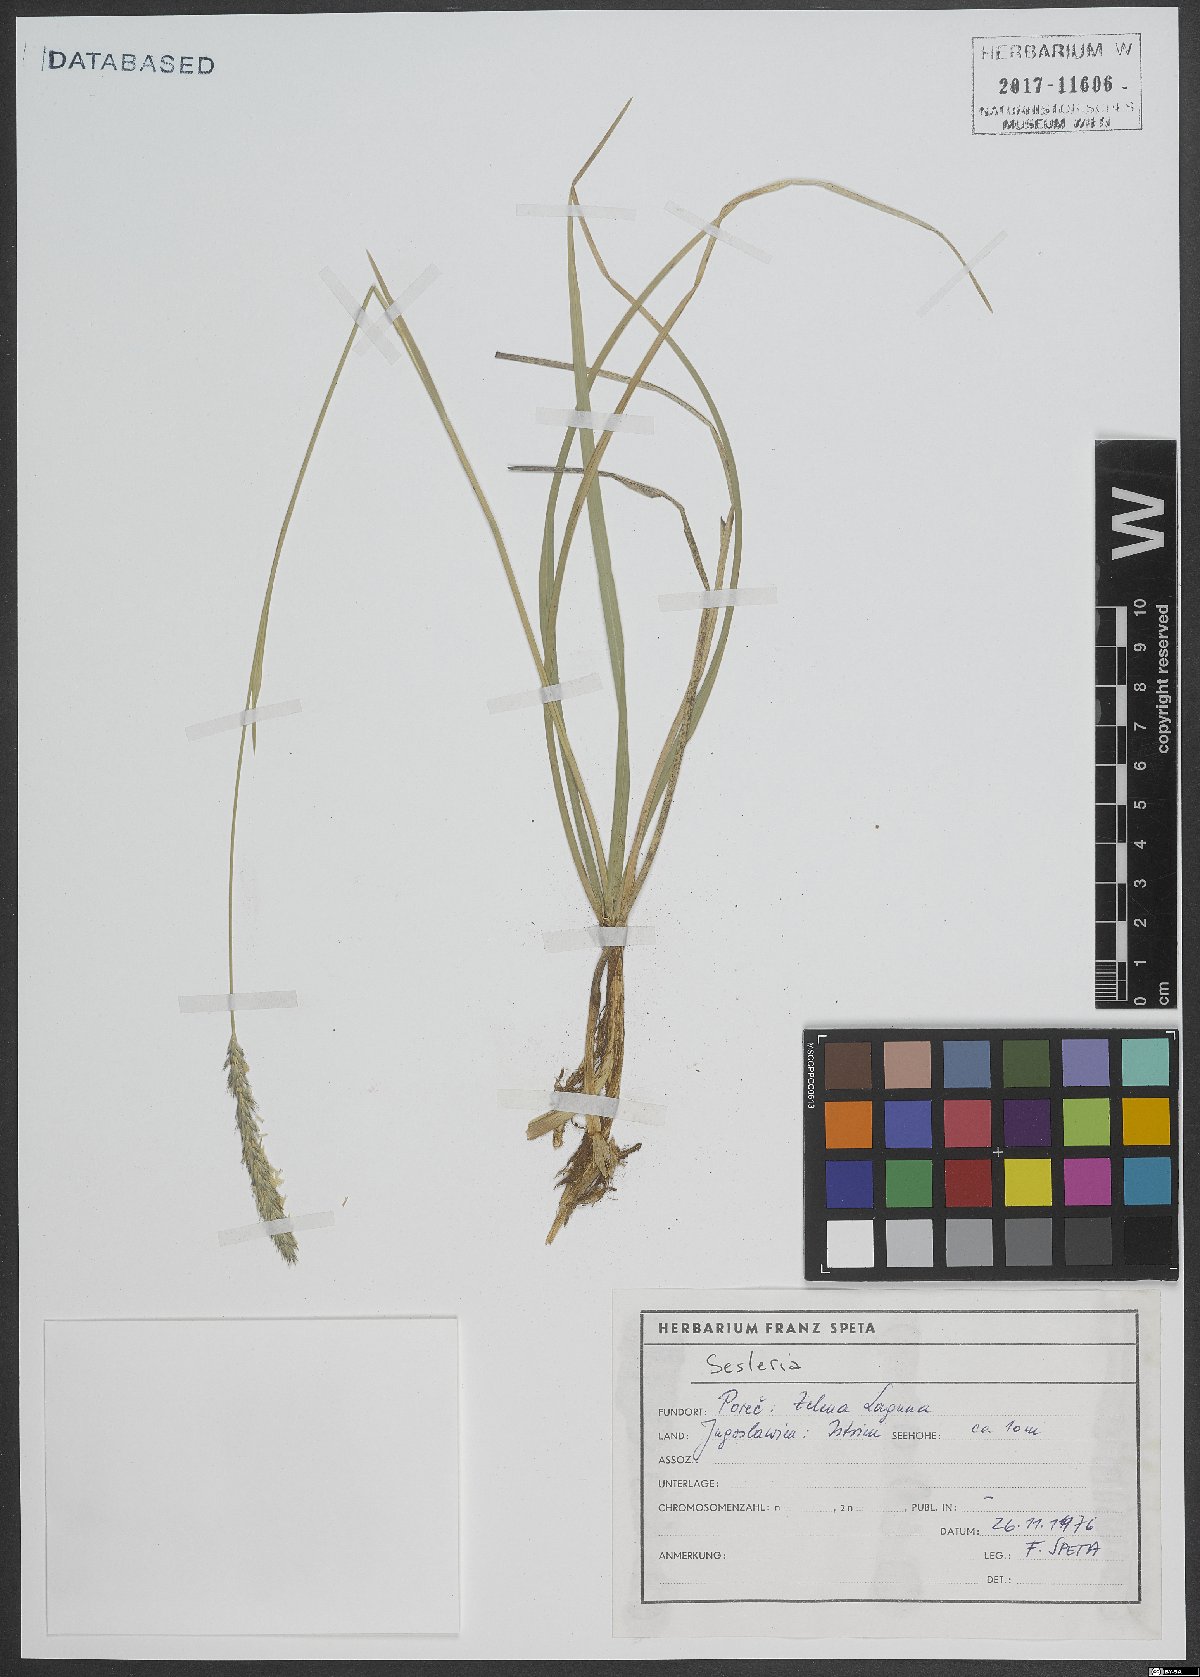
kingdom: Plantae
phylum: Tracheophyta
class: Liliopsida
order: Poales
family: Poaceae
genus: Sesleria
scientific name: Sesleria
